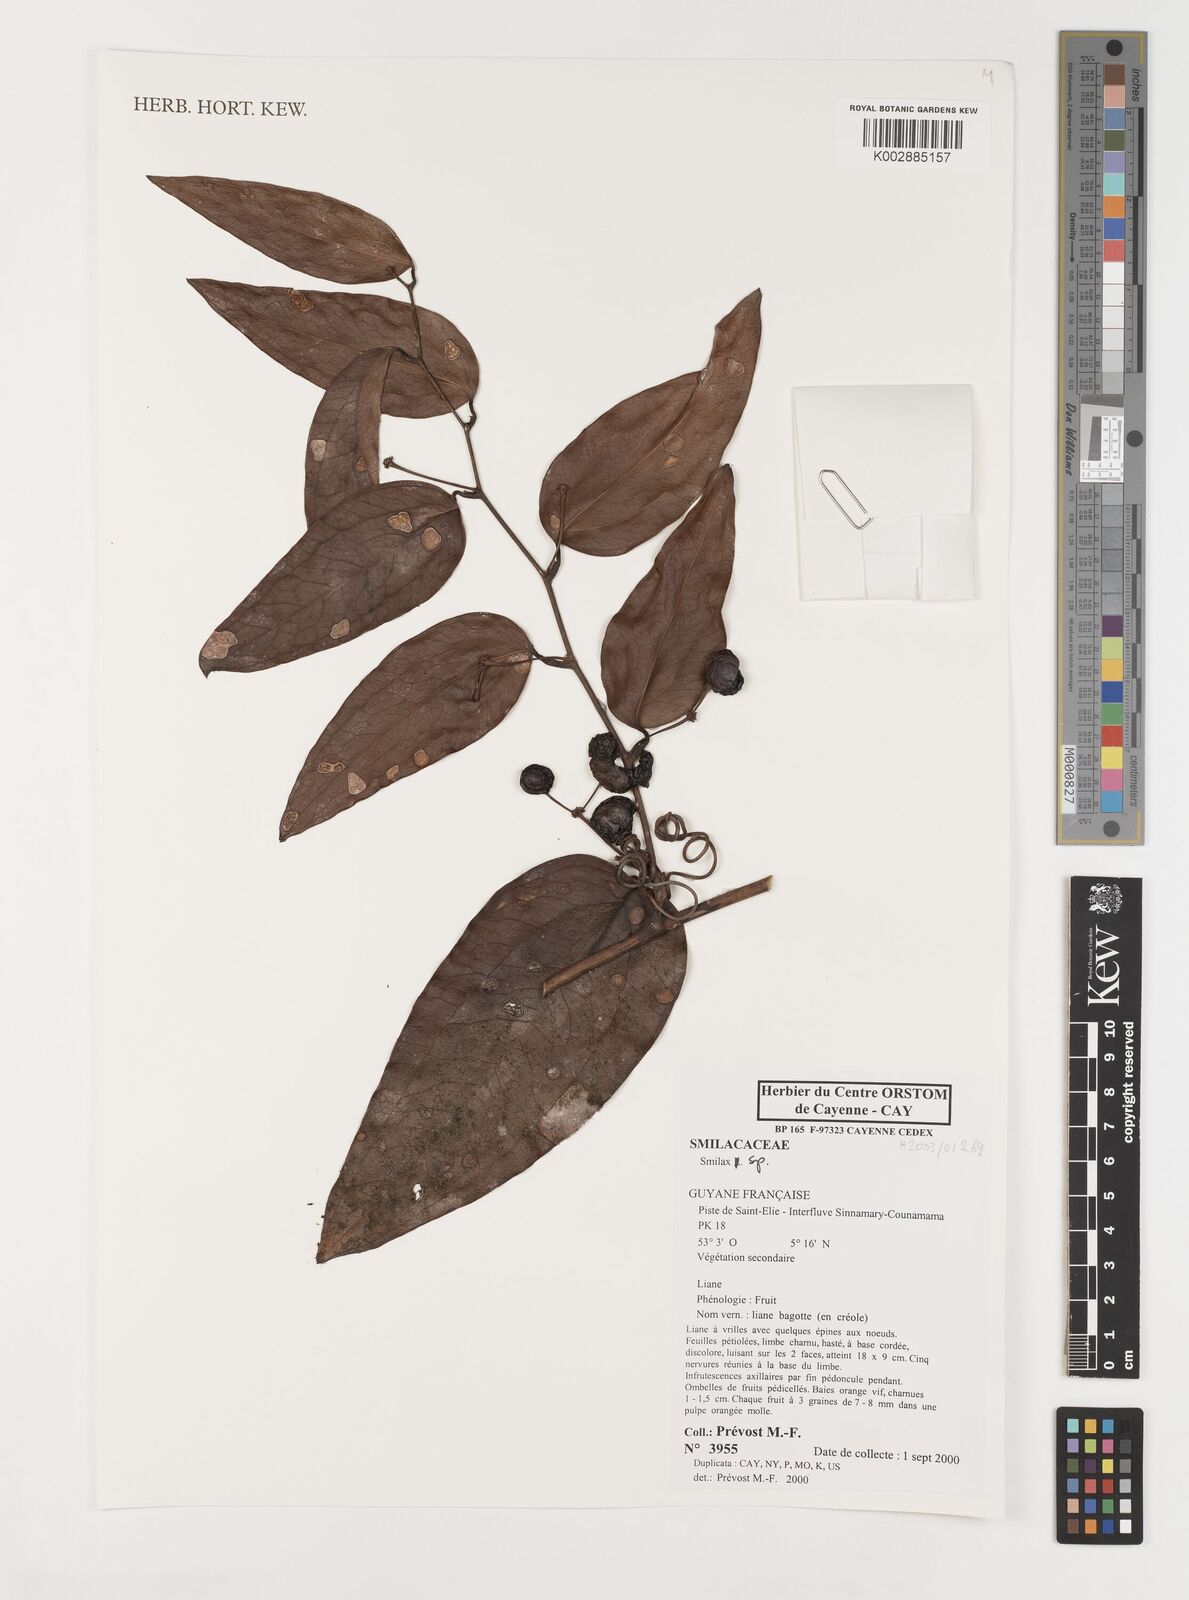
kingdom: Plantae
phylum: Tracheophyta
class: Liliopsida
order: Liliales
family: Smilacaceae
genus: Smilax
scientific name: Smilax
